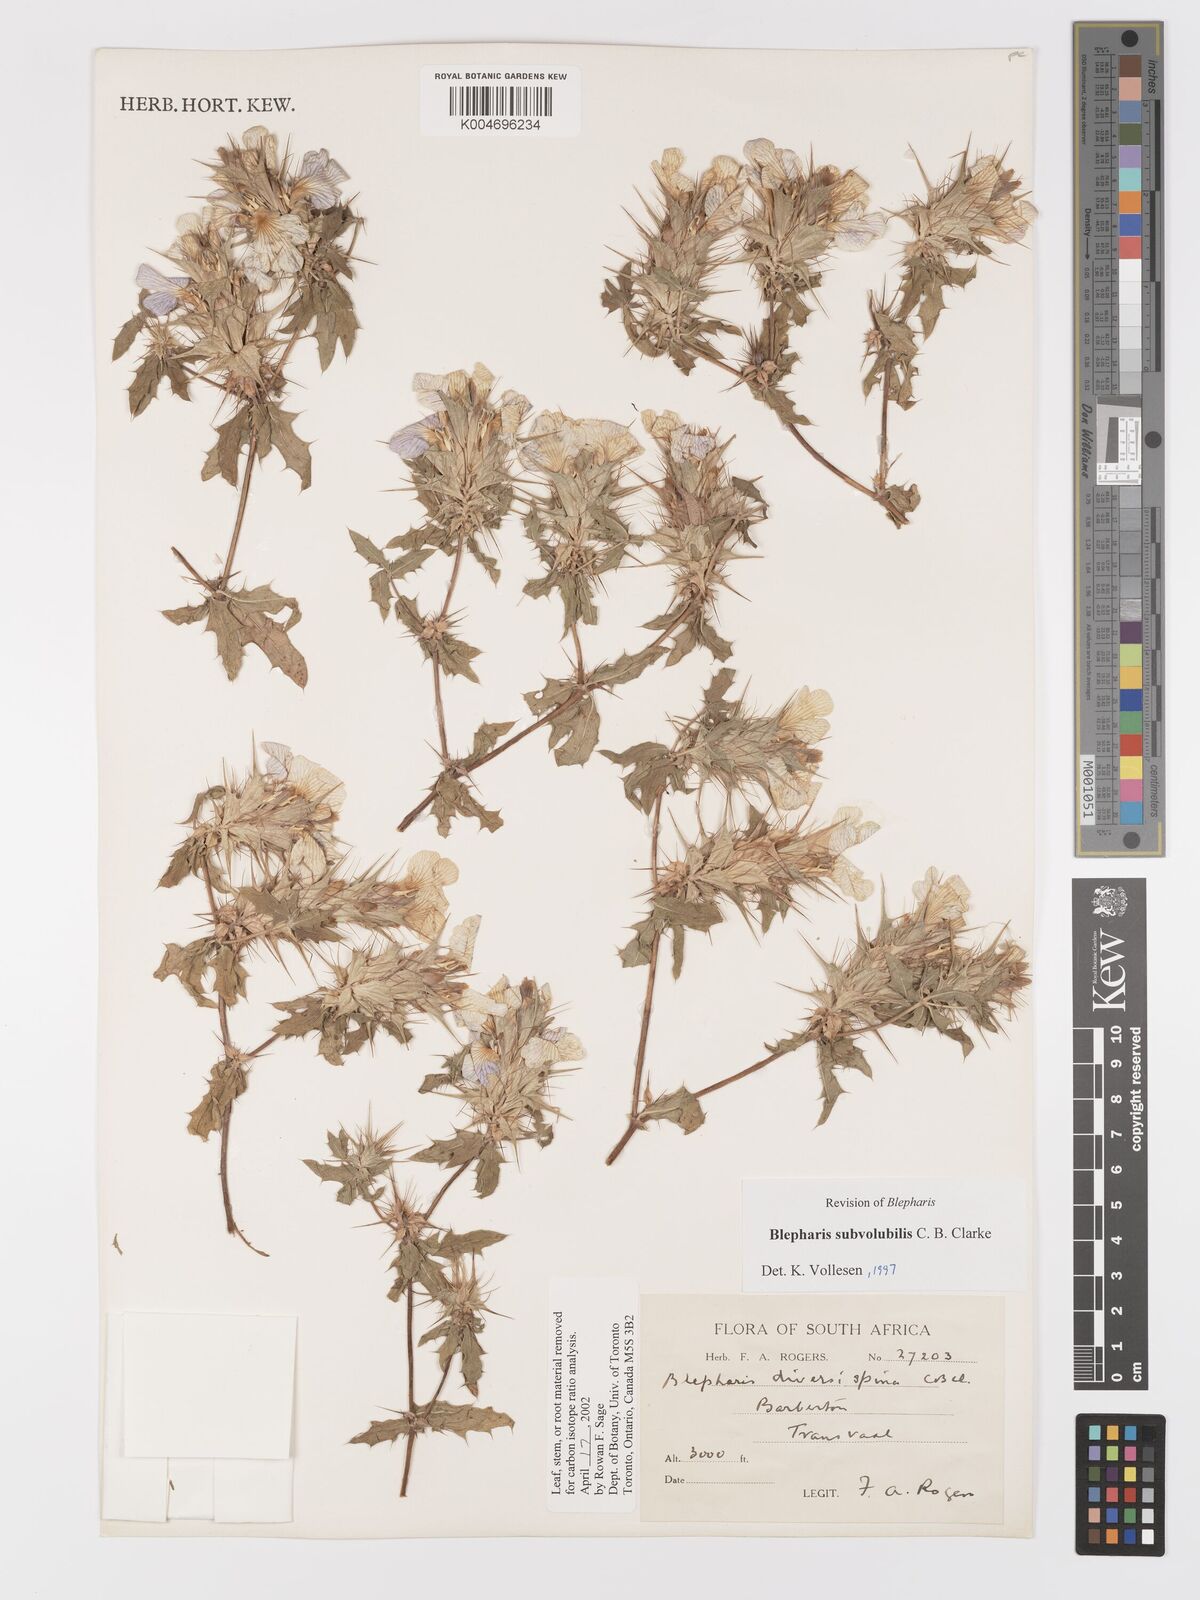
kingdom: Plantae
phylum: Tracheophyta
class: Magnoliopsida
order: Lamiales
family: Acanthaceae
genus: Blepharis
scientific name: Blepharis subvolubilis
